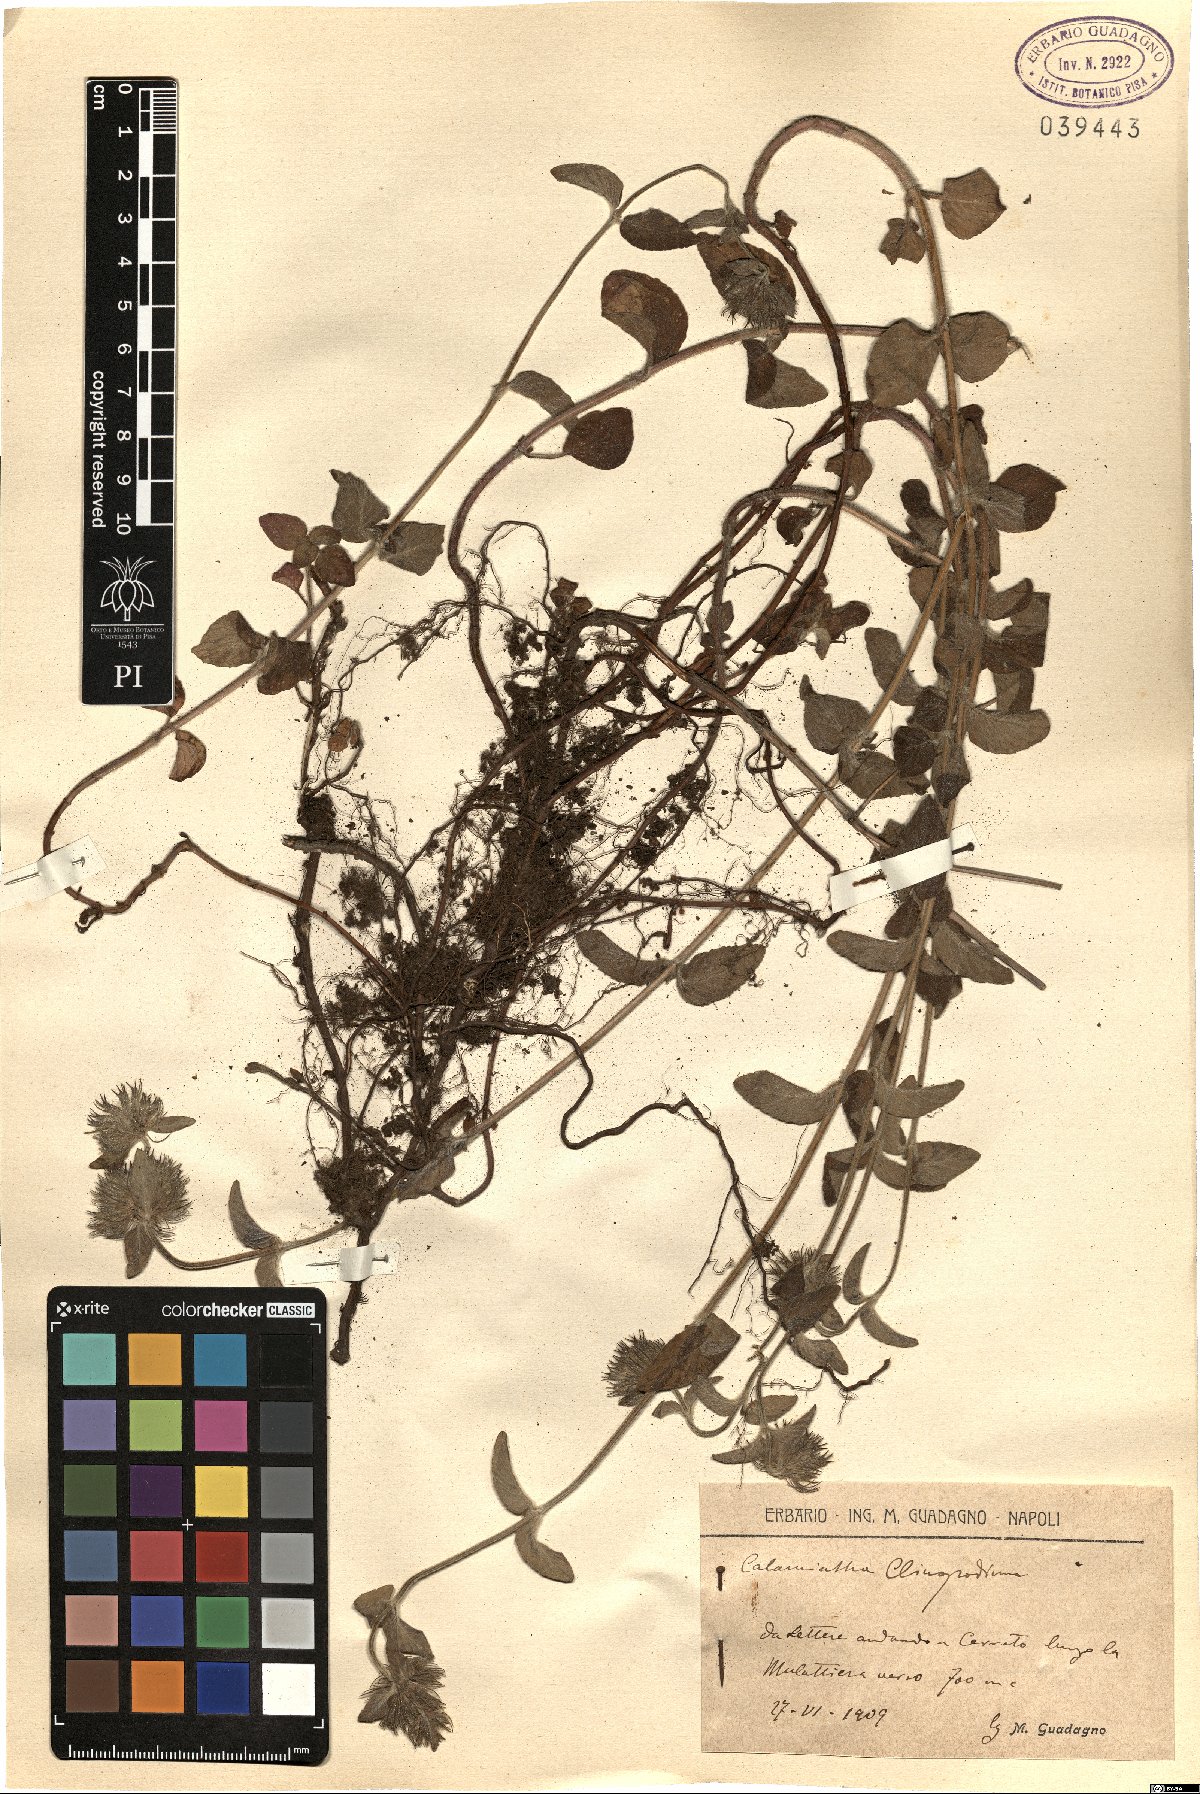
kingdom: Plantae
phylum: Tracheophyta
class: Magnoliopsida
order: Lamiales
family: Lamiaceae
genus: Clinopodium
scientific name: Clinopodium vulgare
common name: Wild basil
